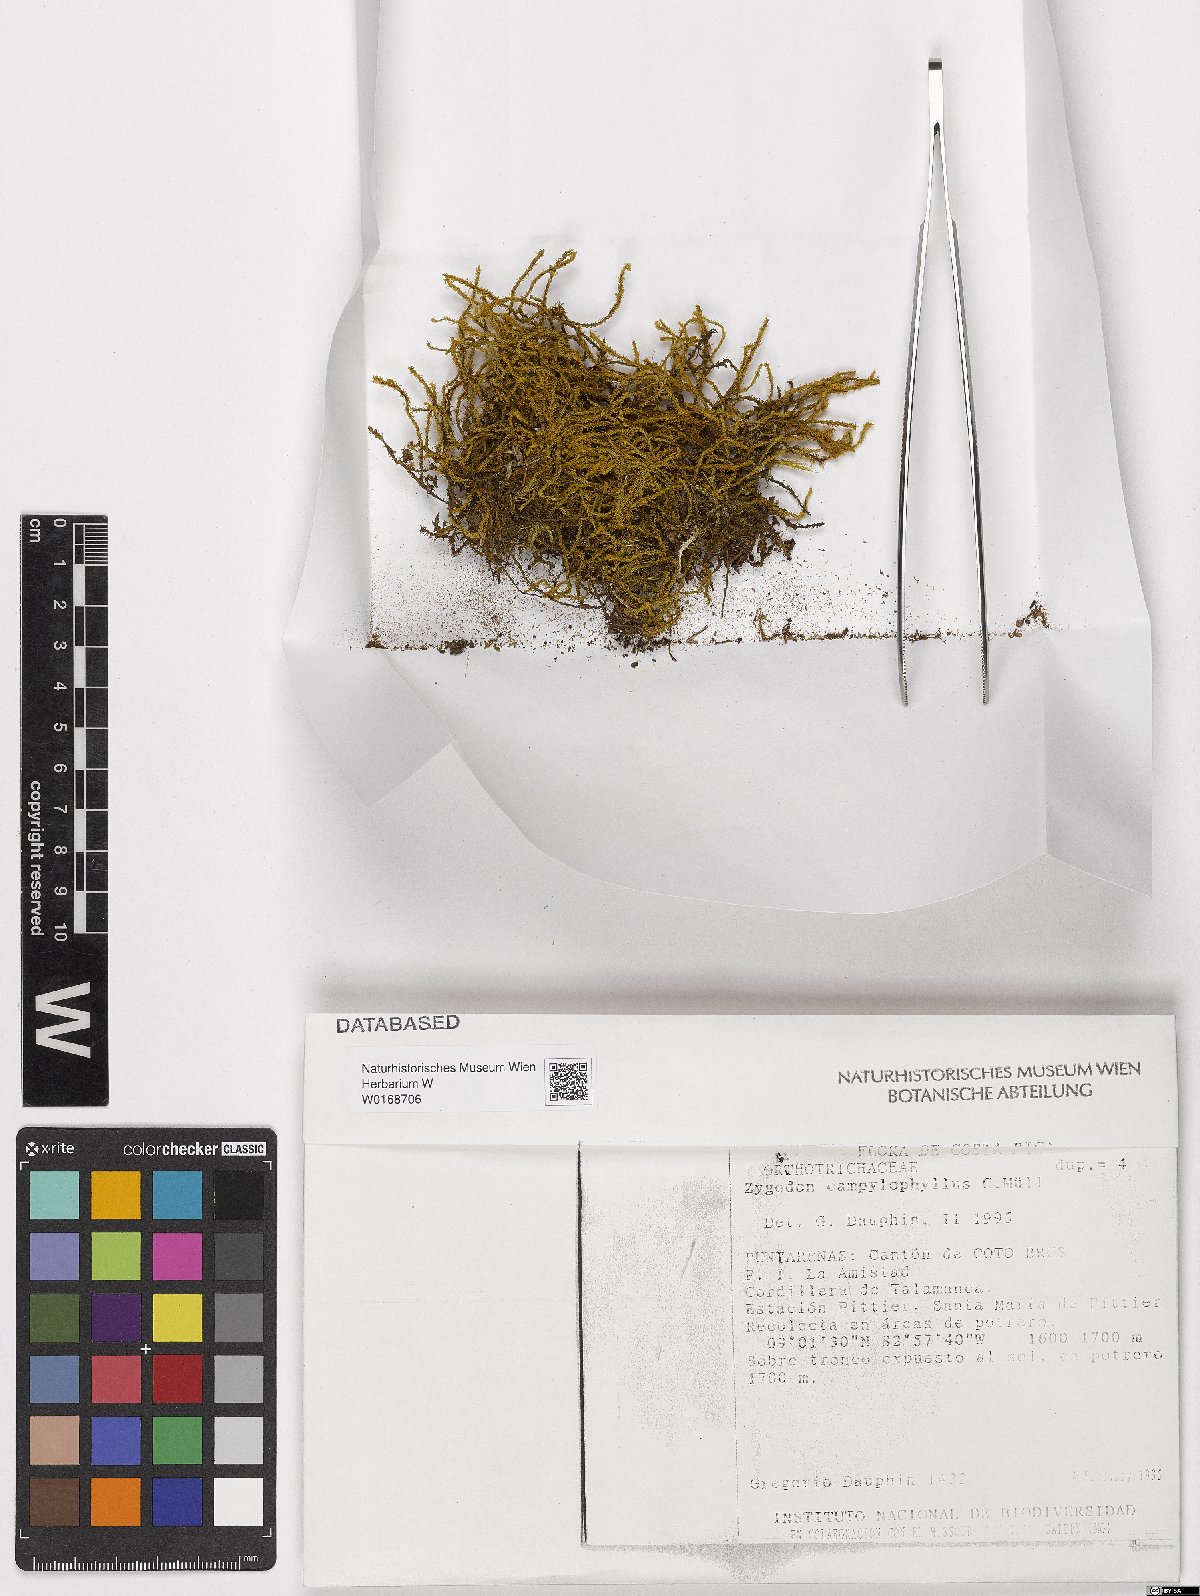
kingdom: Plantae
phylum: Bryophyta
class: Bryopsida
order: Orthotrichales
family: Orthotrichaceae
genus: Zygodon
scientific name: Zygodon campylophyllus
